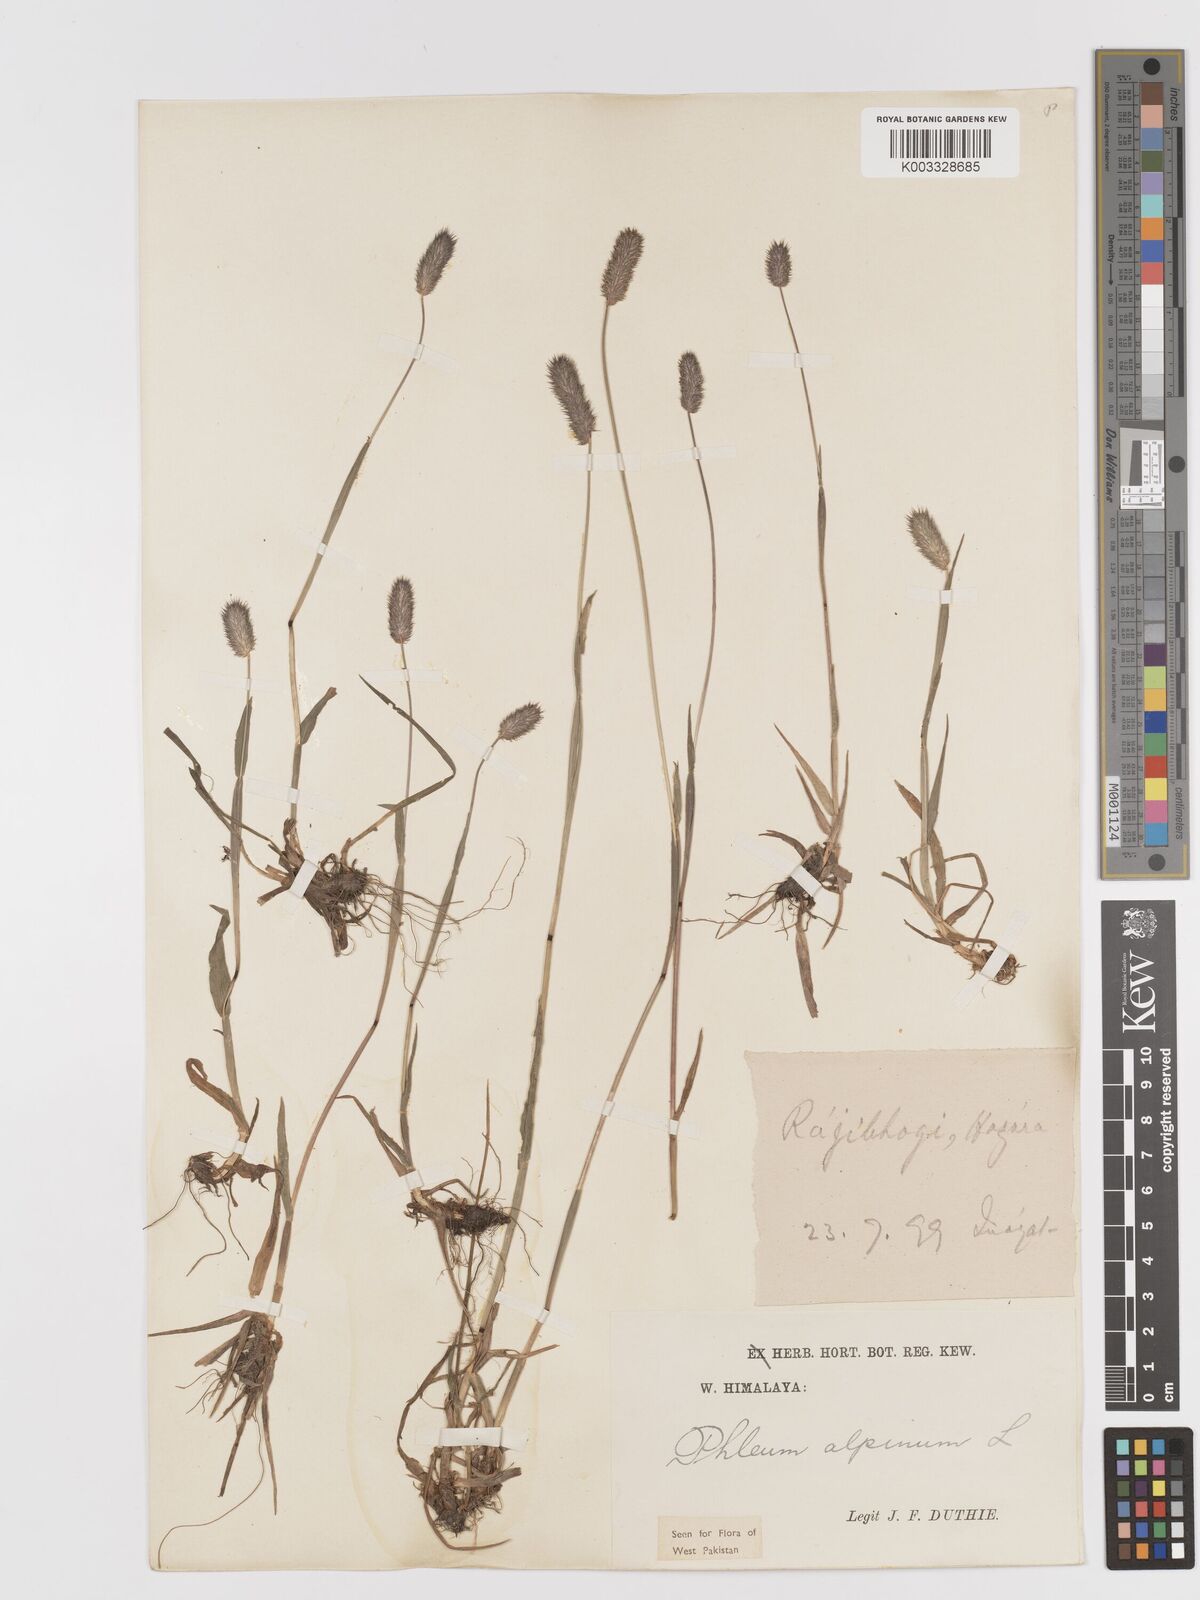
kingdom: Plantae
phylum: Tracheophyta
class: Liliopsida
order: Poales
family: Poaceae
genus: Phleum
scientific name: Phleum alpinum
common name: Alpine cat's-tail
